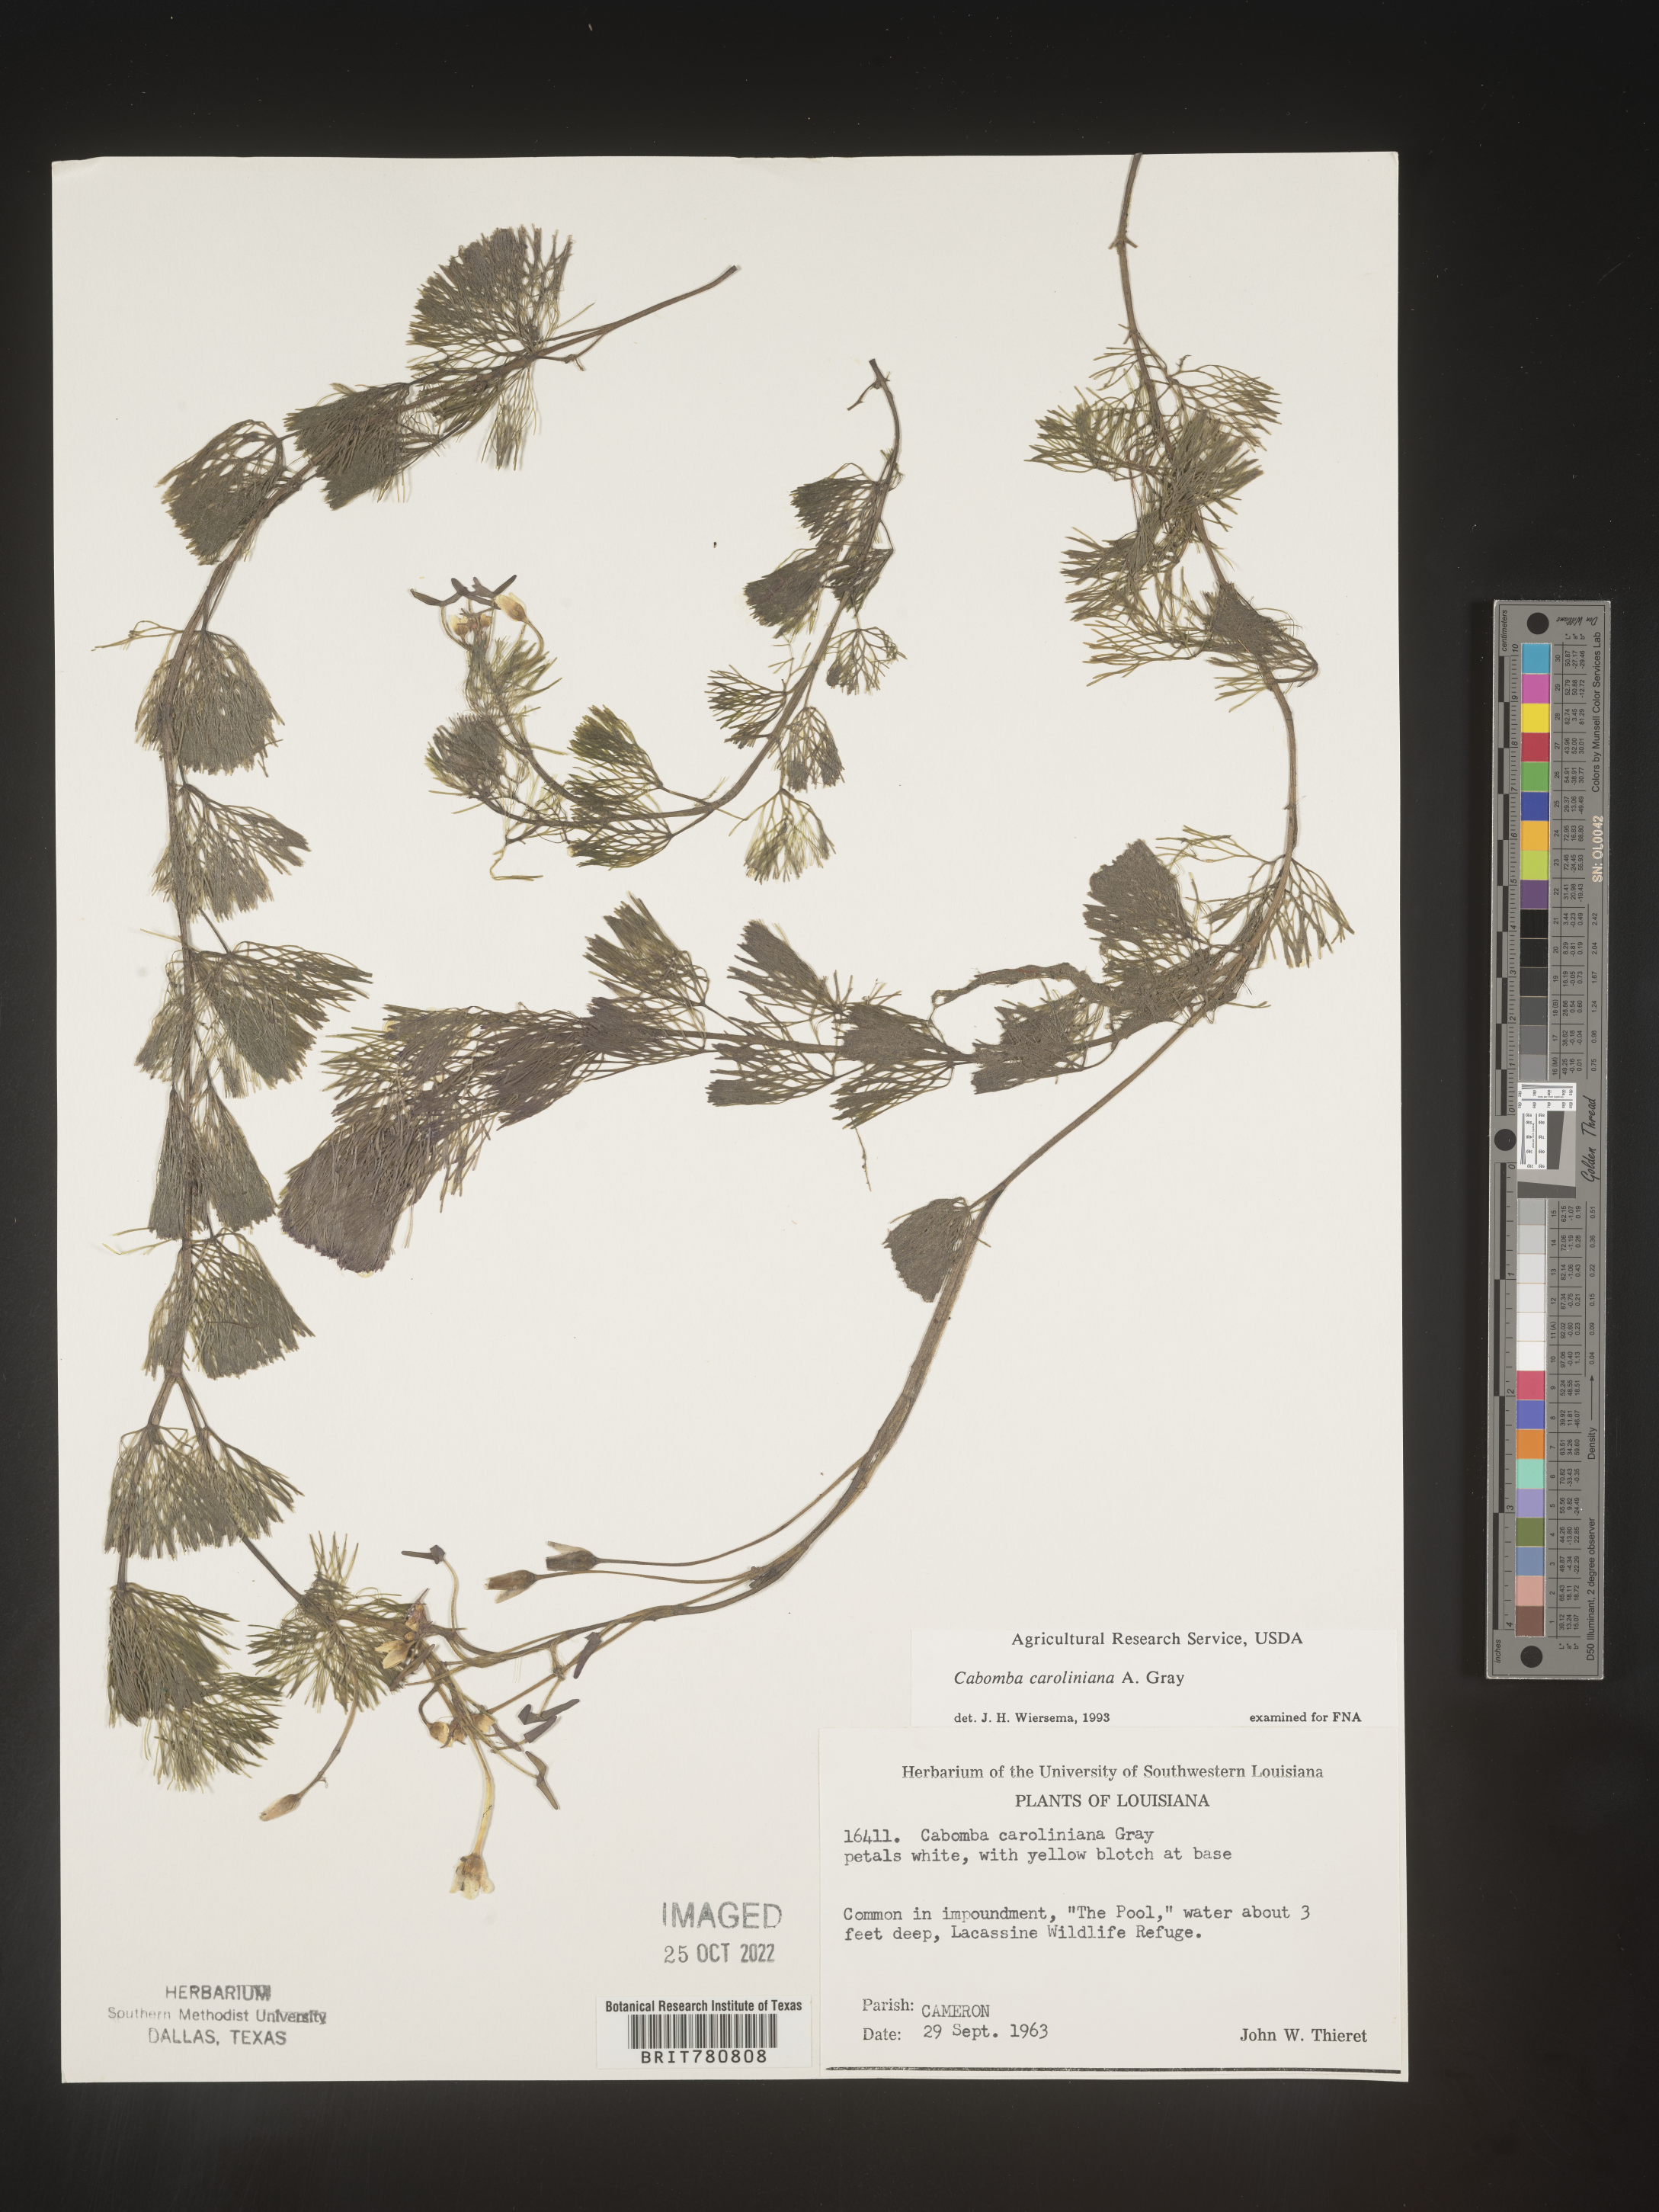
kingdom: Plantae
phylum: Tracheophyta
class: Magnoliopsida
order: Nymphaeales
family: Cabombaceae
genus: Cabomba
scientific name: Cabomba
